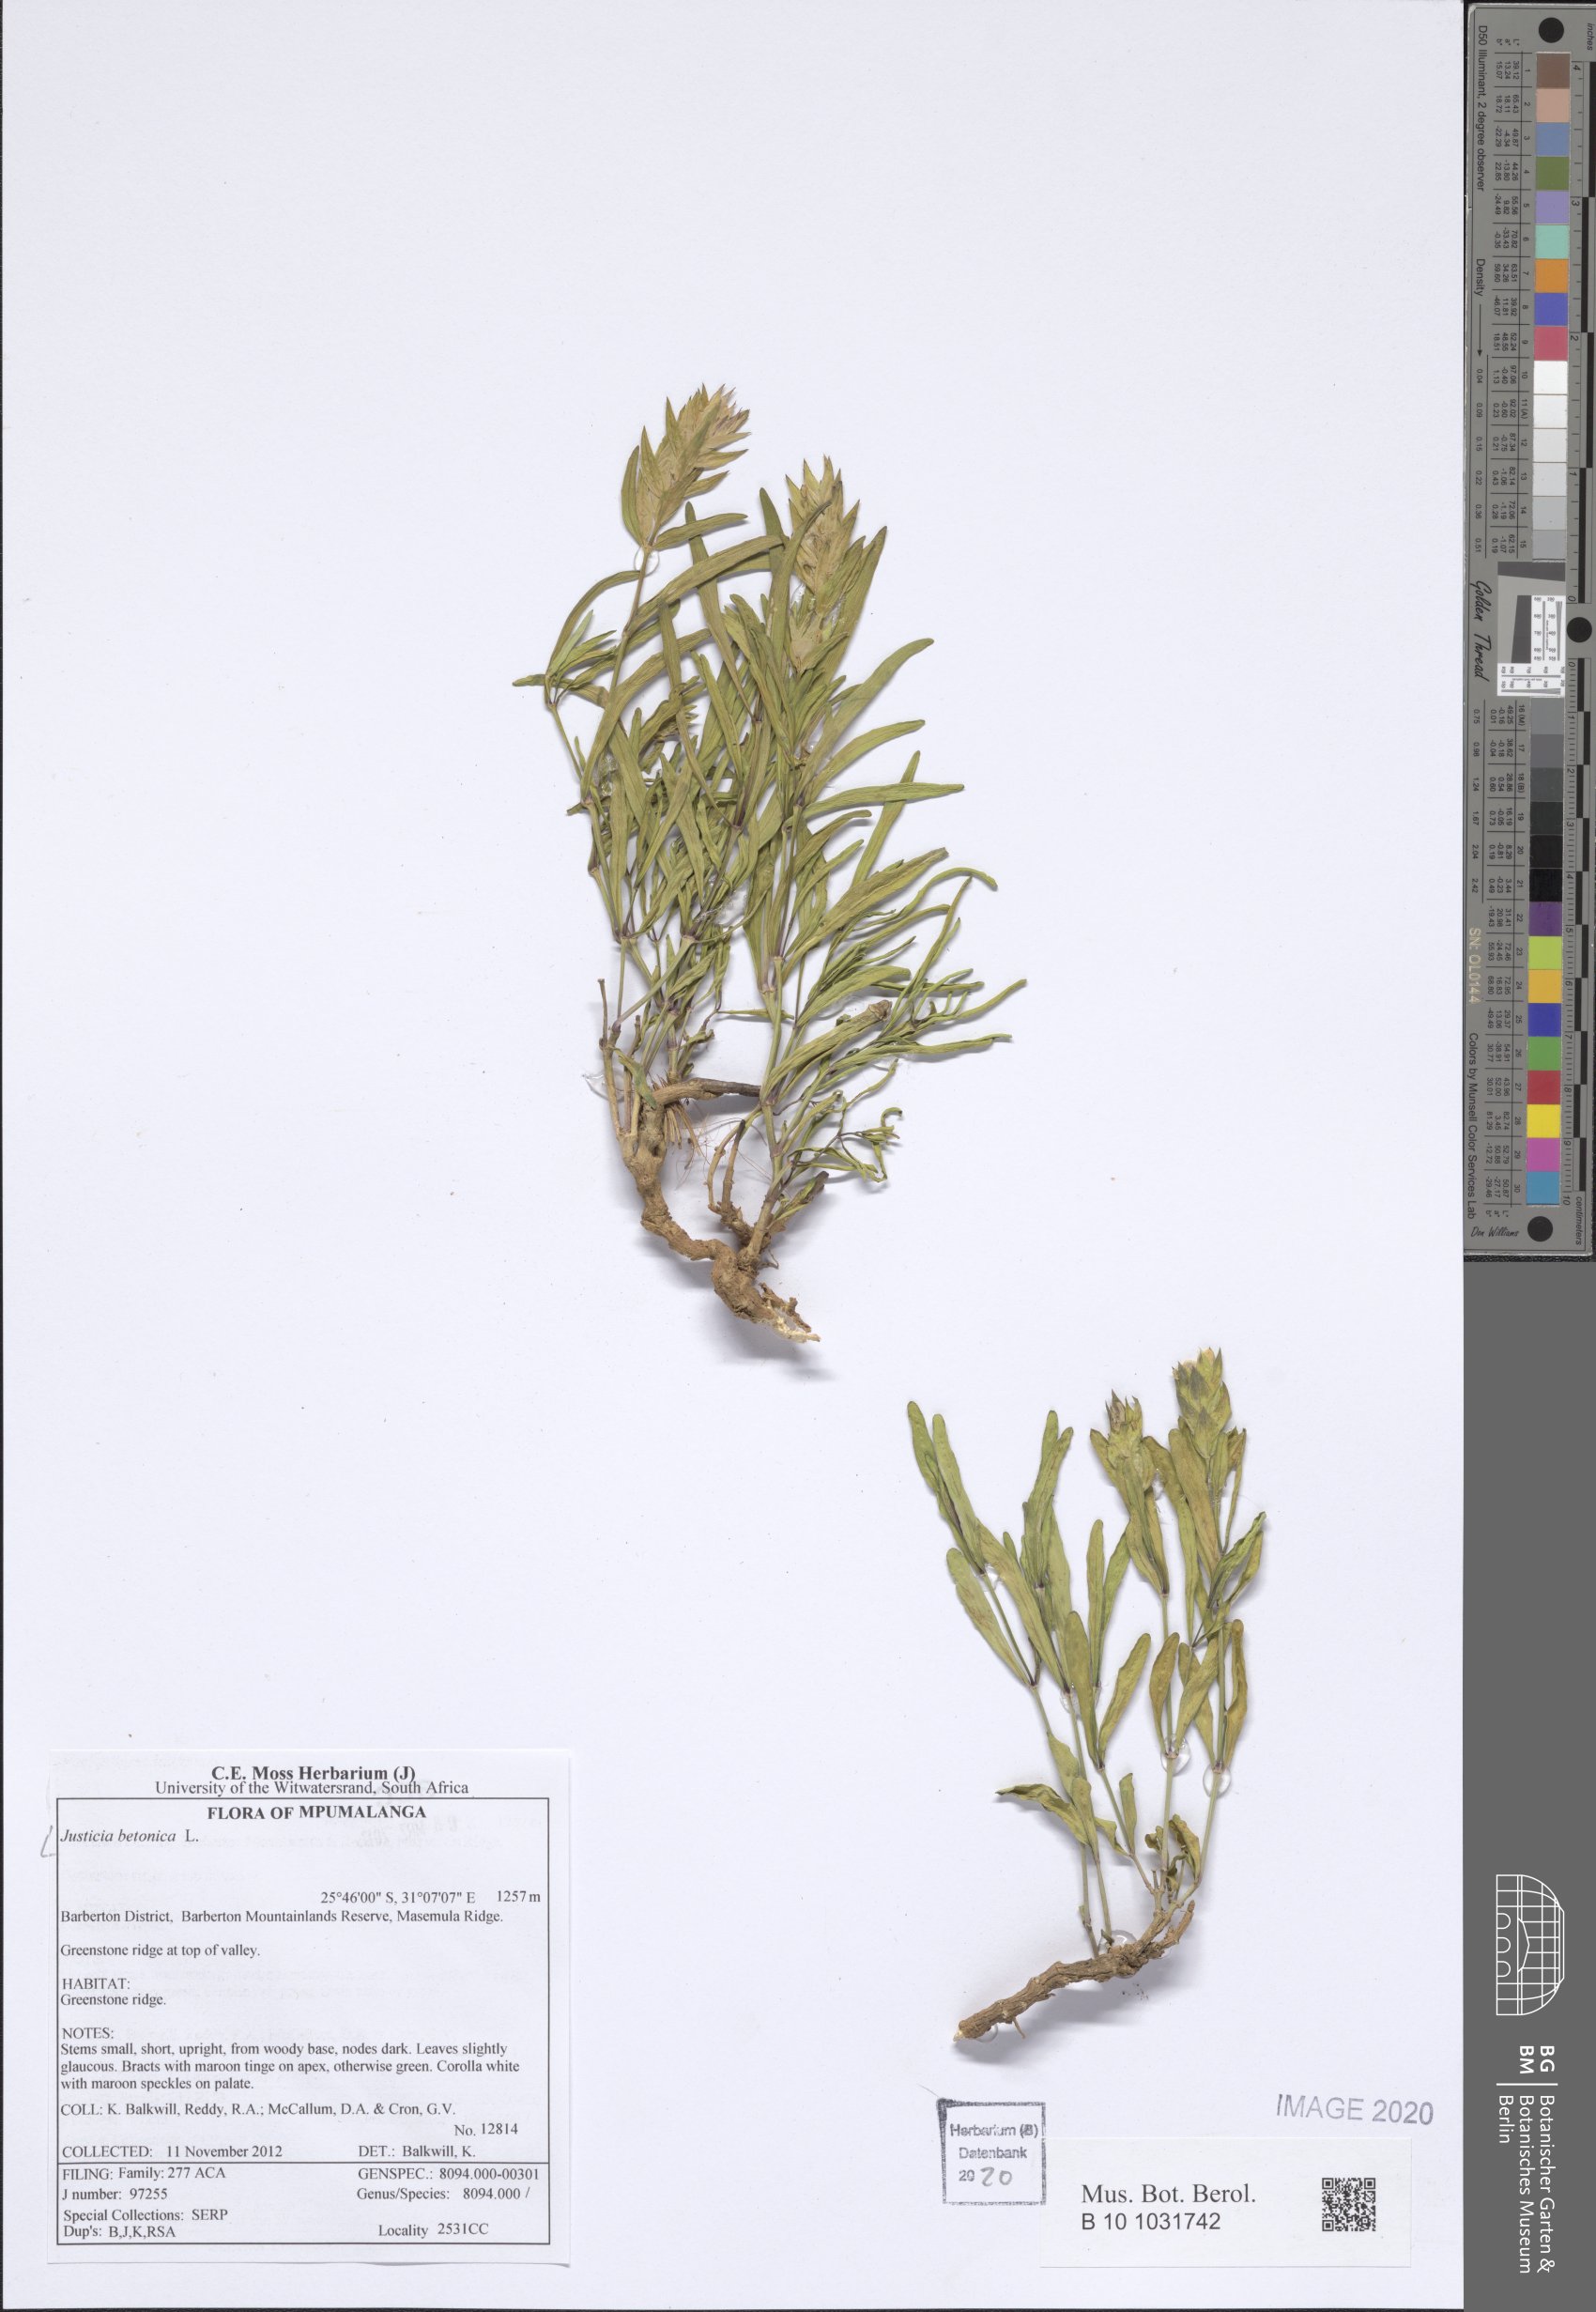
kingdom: Plantae
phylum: Tracheophyta
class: Magnoliopsida
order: Lamiales
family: Acanthaceae
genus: Nicoteba
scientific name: Nicoteba betonica
